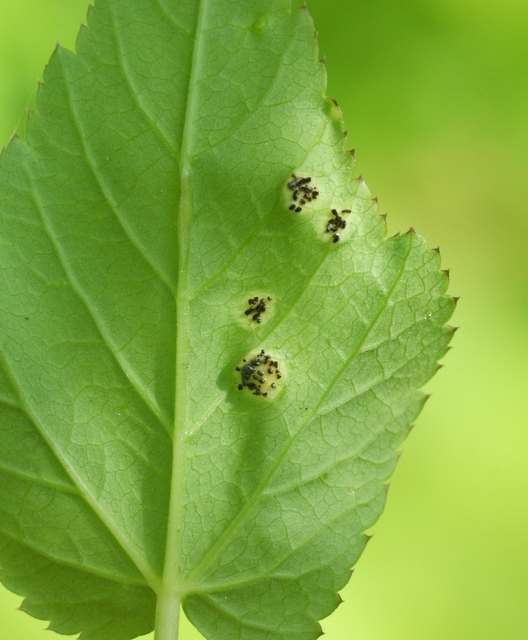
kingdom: Fungi
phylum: Basidiomycota
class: Pucciniomycetes
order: Pucciniales
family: Pucciniaceae
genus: Puccinia
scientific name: Puccinia
